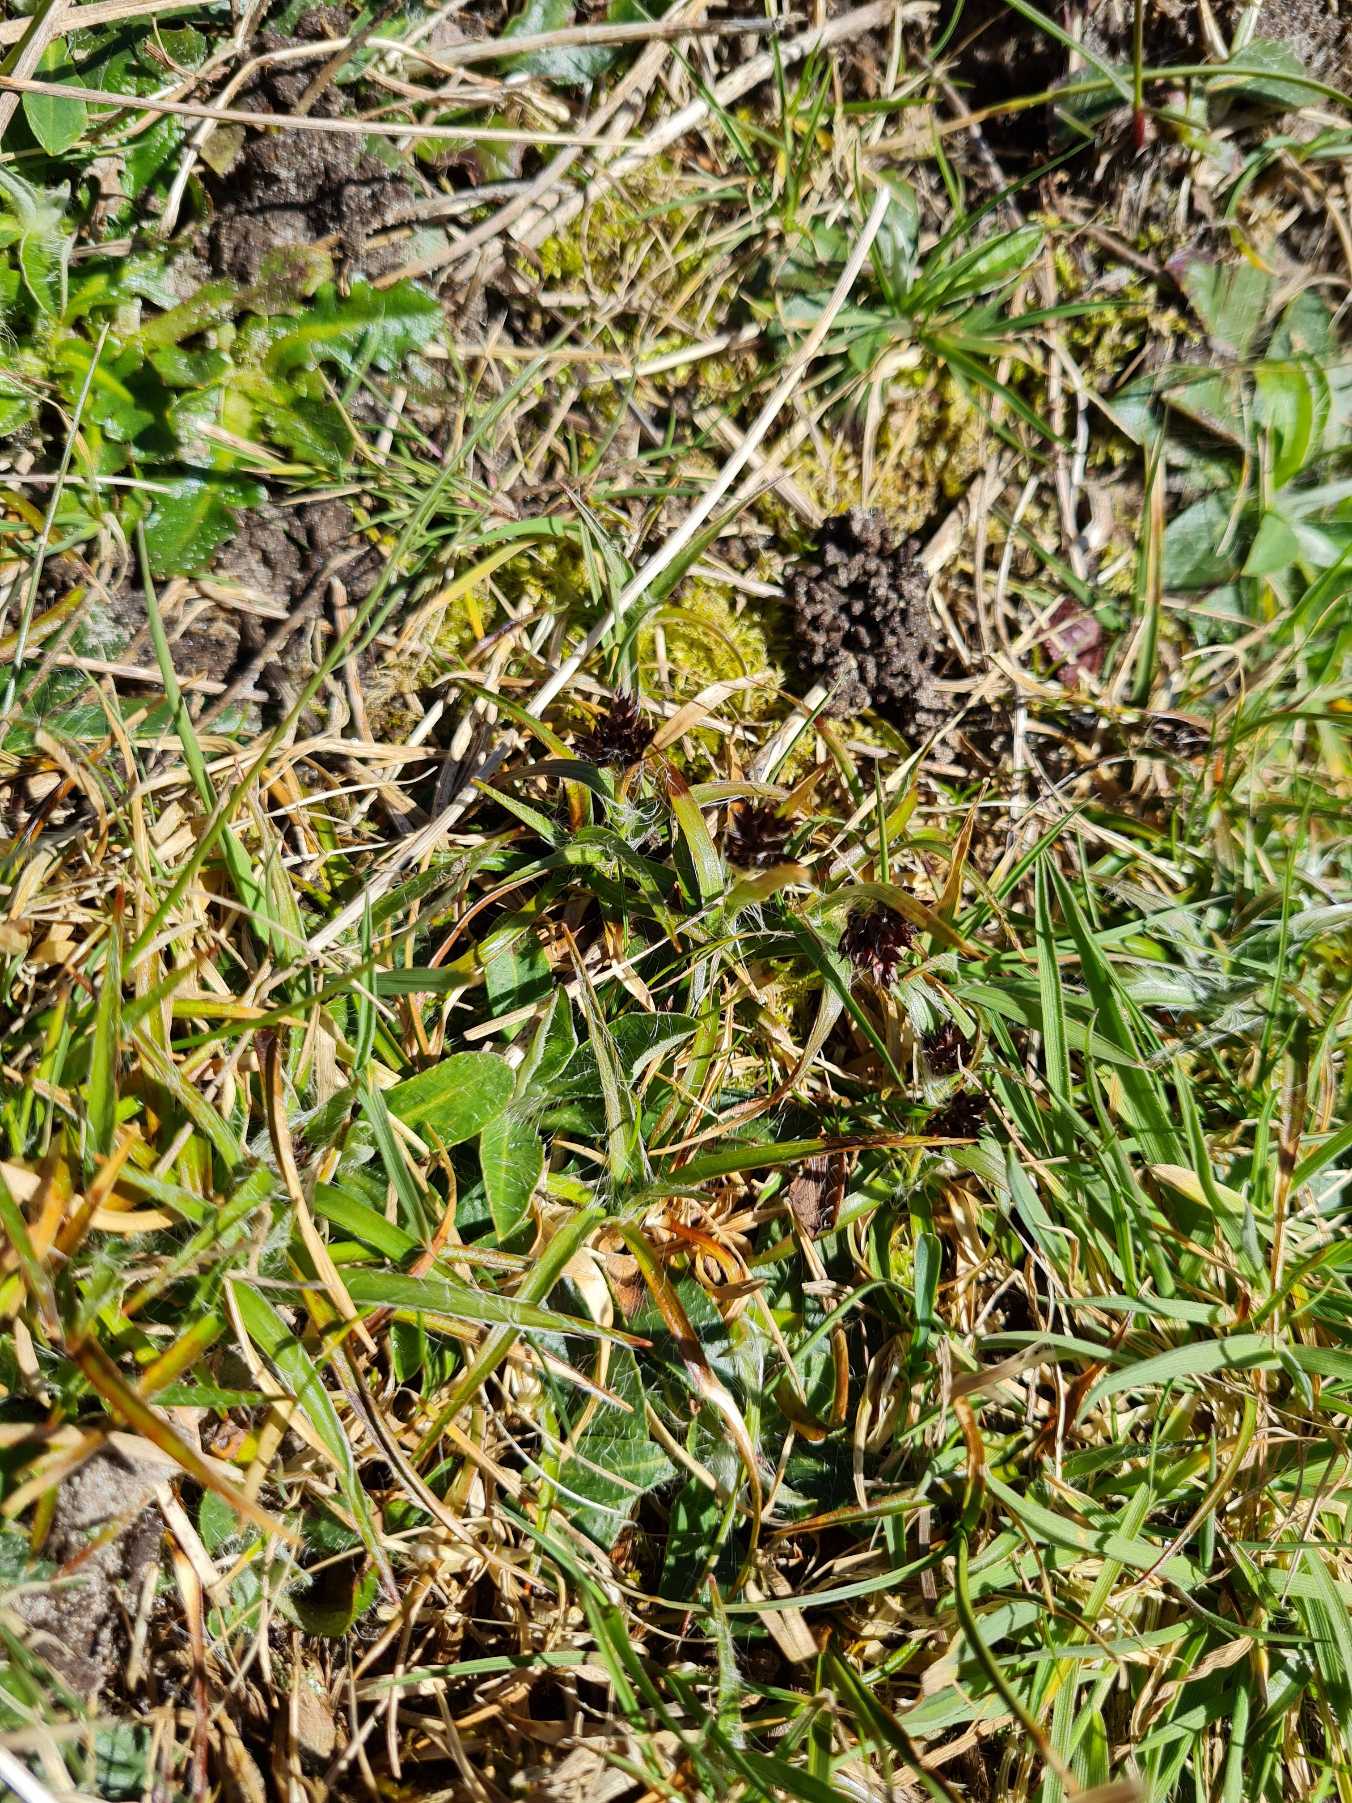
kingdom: Plantae
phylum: Tracheophyta
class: Liliopsida
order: Poales
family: Juncaceae
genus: Luzula
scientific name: Luzula campestris
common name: Mark-frytle
